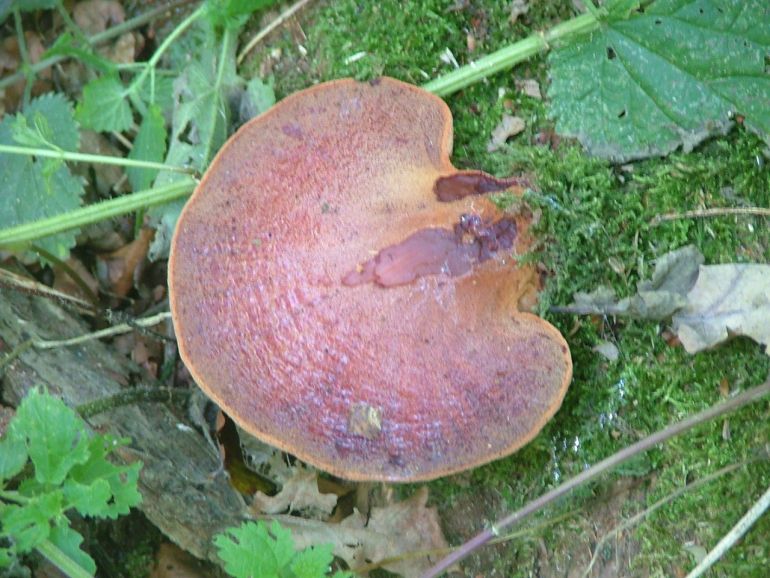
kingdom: Fungi
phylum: Basidiomycota
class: Agaricomycetes
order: Agaricales
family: Fistulinaceae
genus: Fistulina
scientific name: Fistulina hepatica
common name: oksetunge
